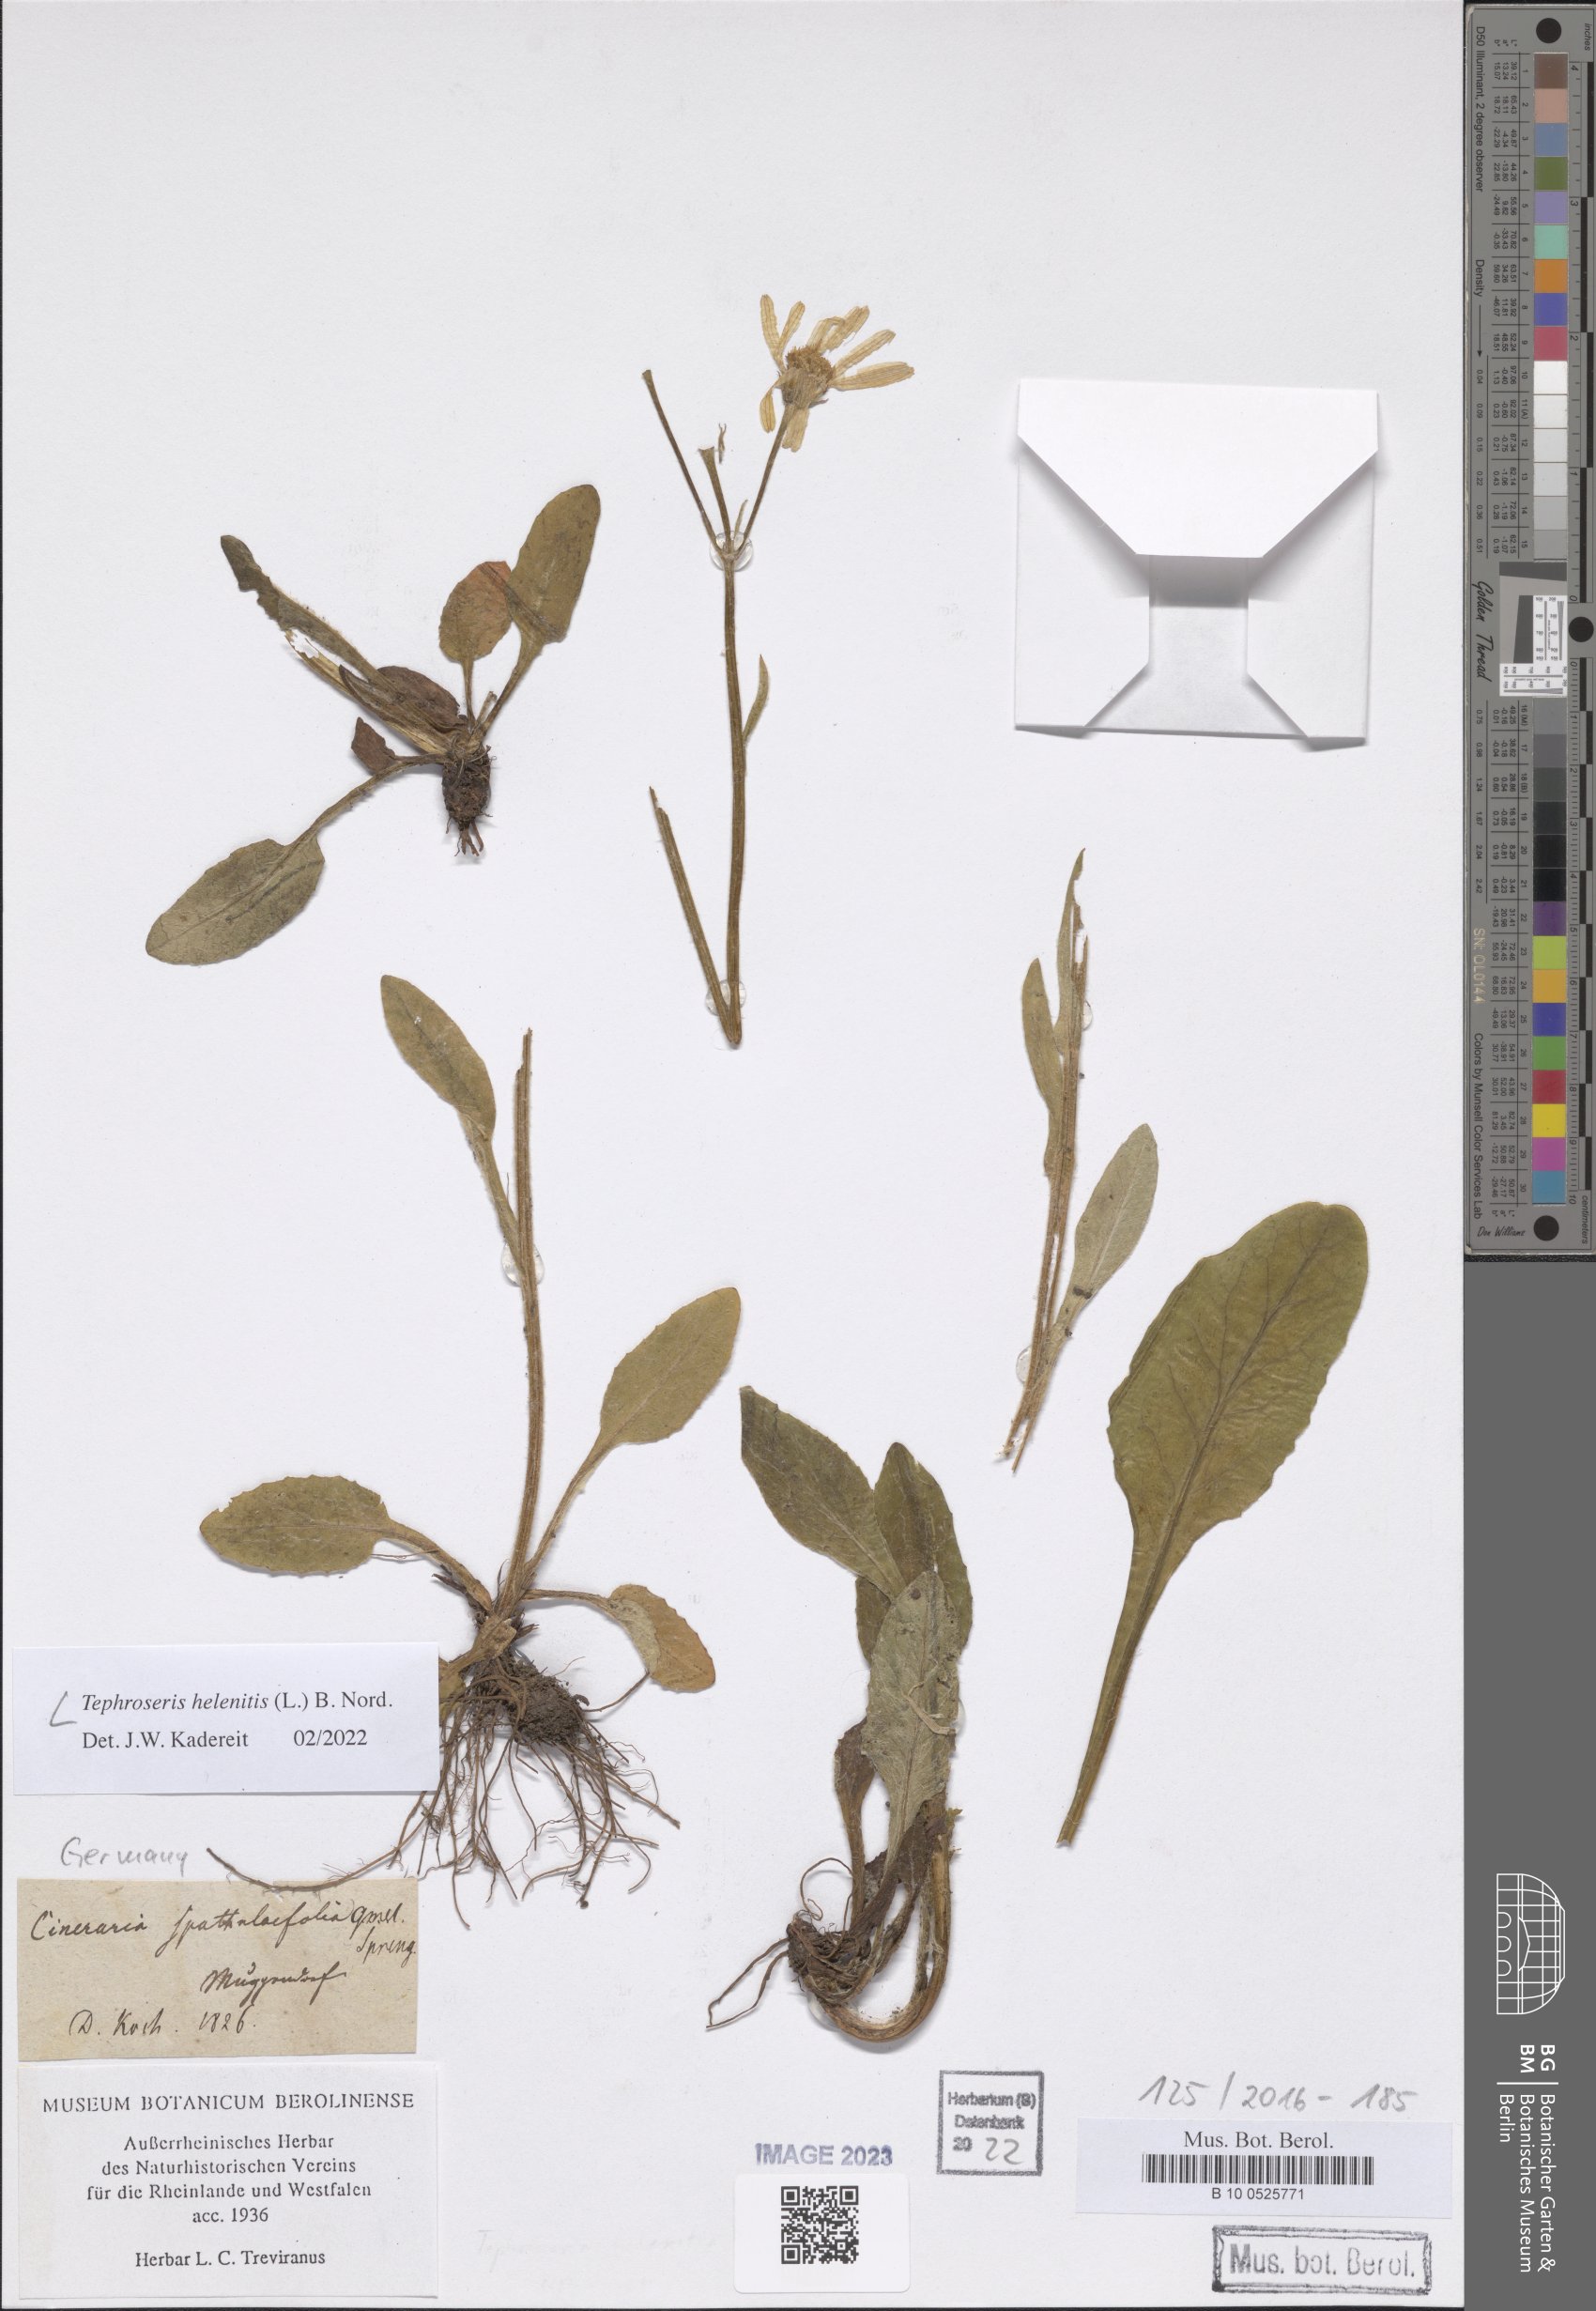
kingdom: Plantae
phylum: Tracheophyta
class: Magnoliopsida
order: Asterales
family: Asteraceae
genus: Tephroseris
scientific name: Tephroseris helenitis
